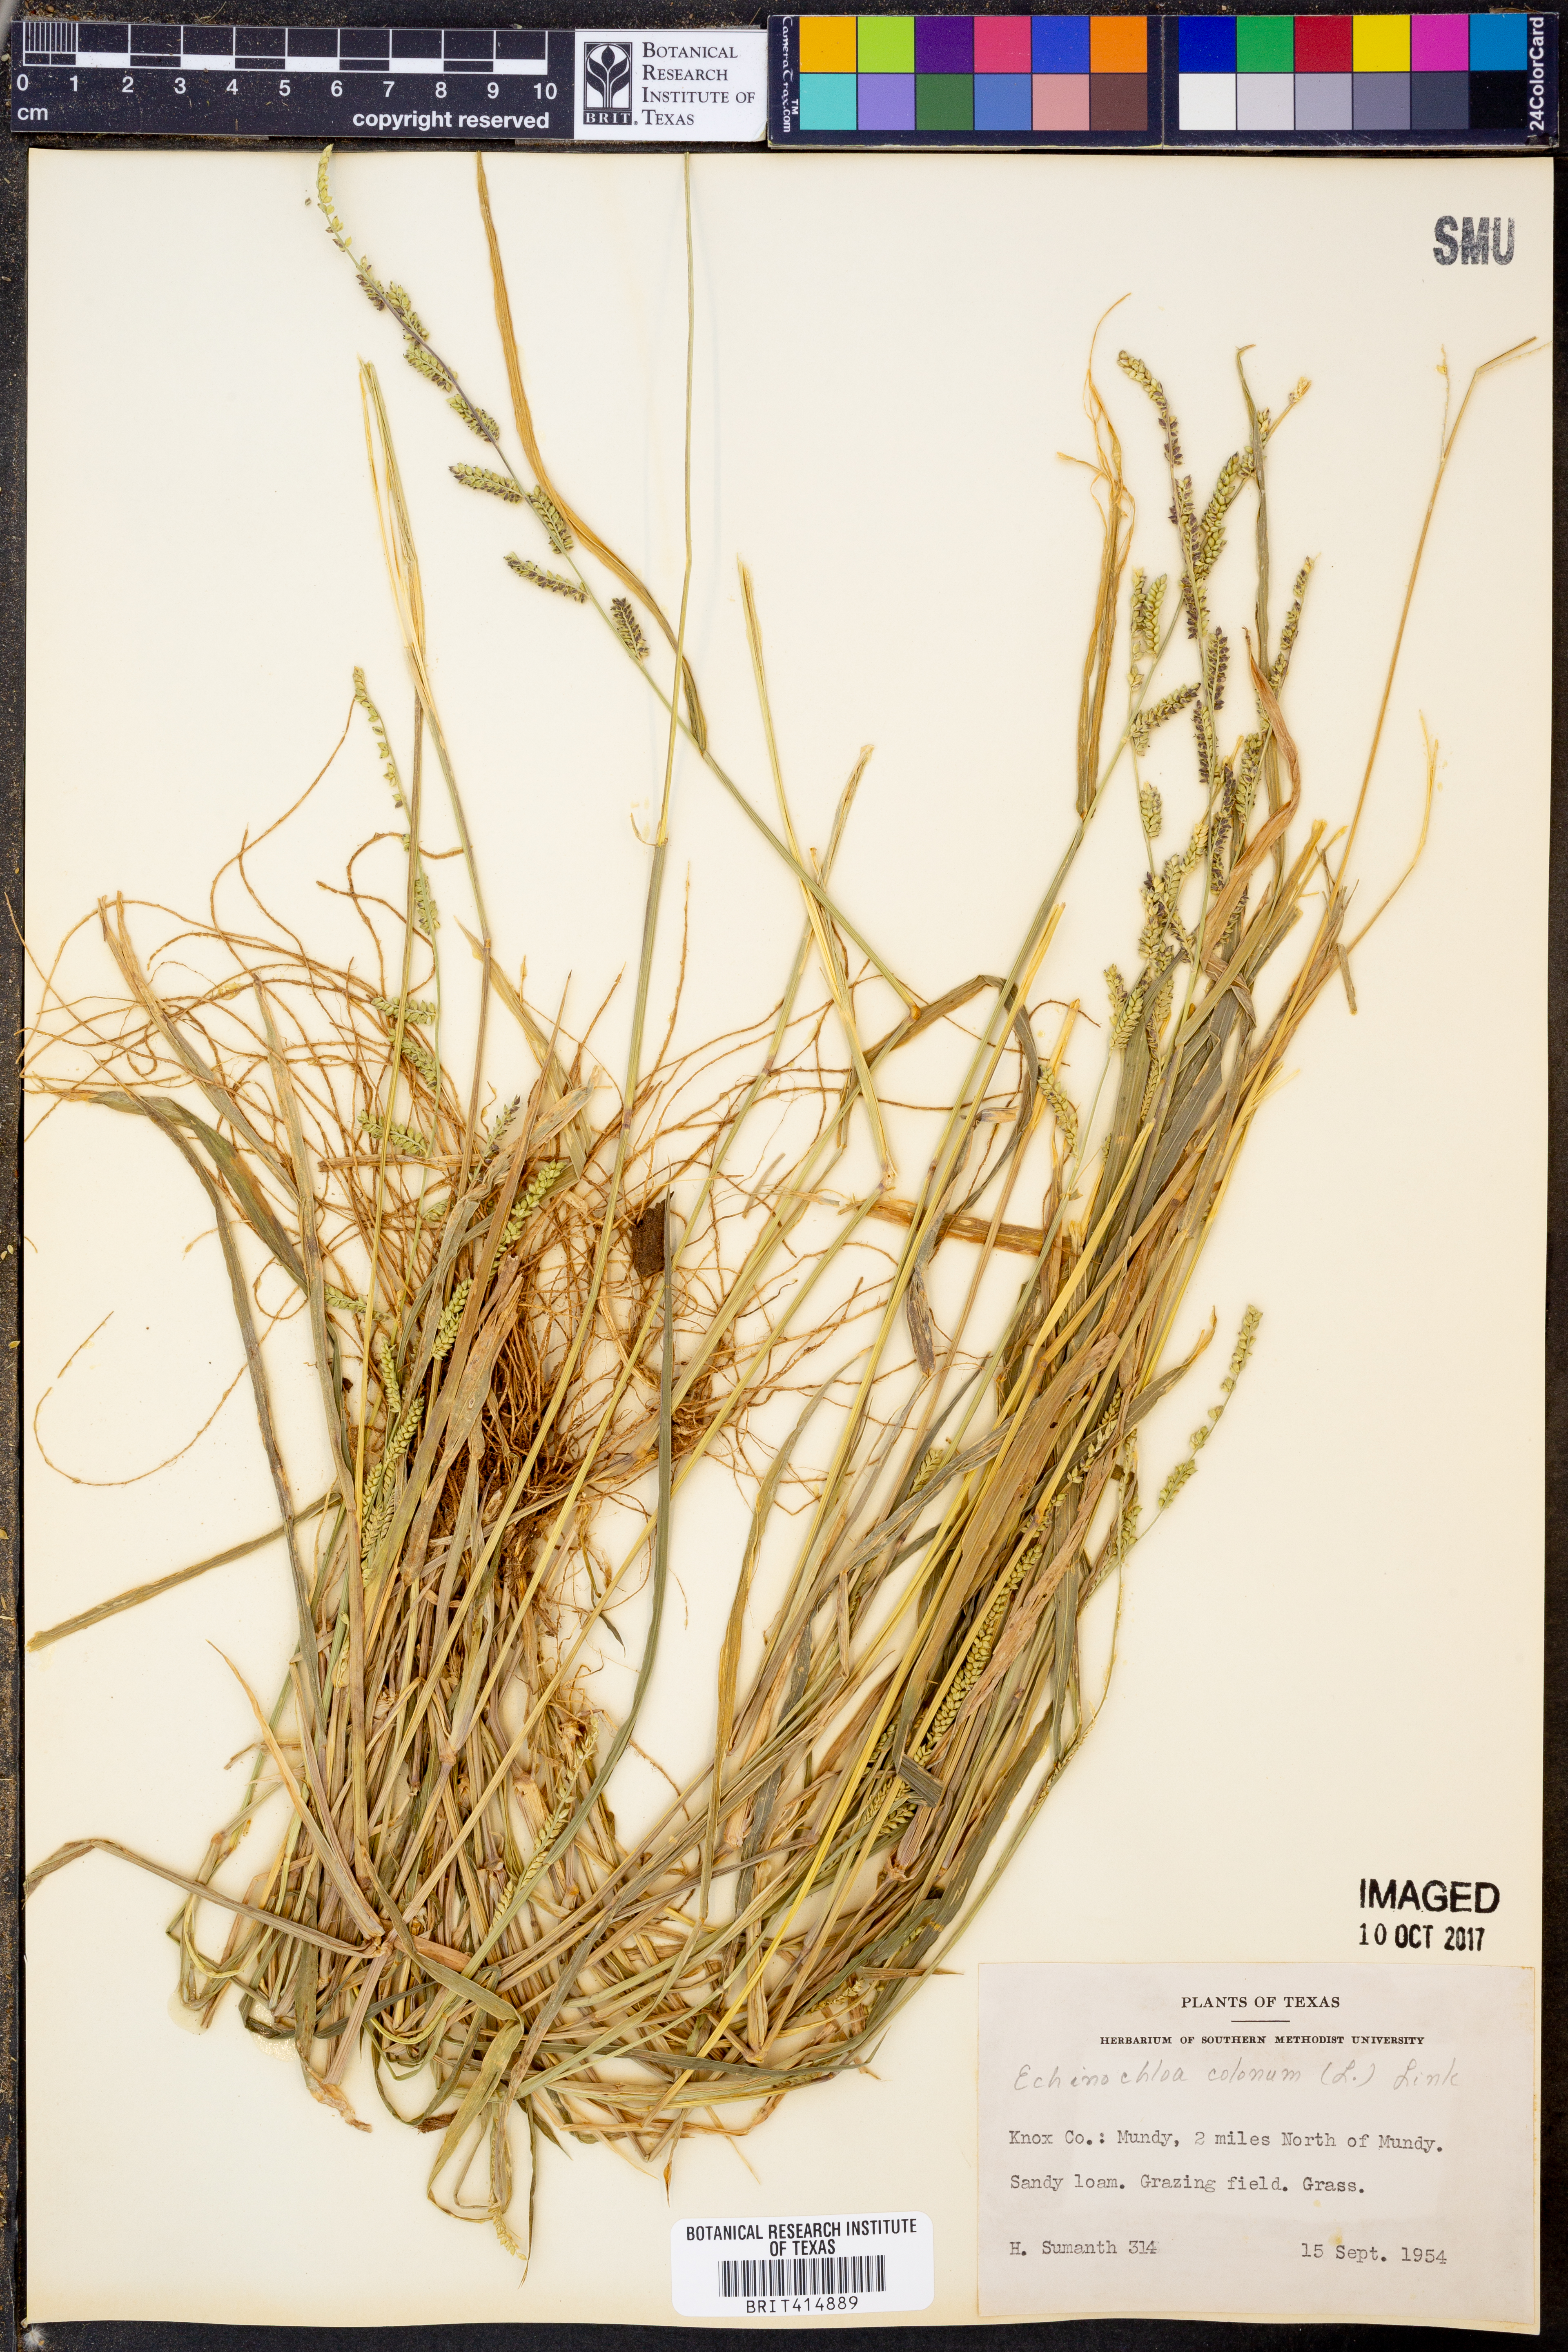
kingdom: Plantae
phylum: Tracheophyta
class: Liliopsida
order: Poales
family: Poaceae
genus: Echinochloa
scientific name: Echinochloa colonum
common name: Jungle rice
